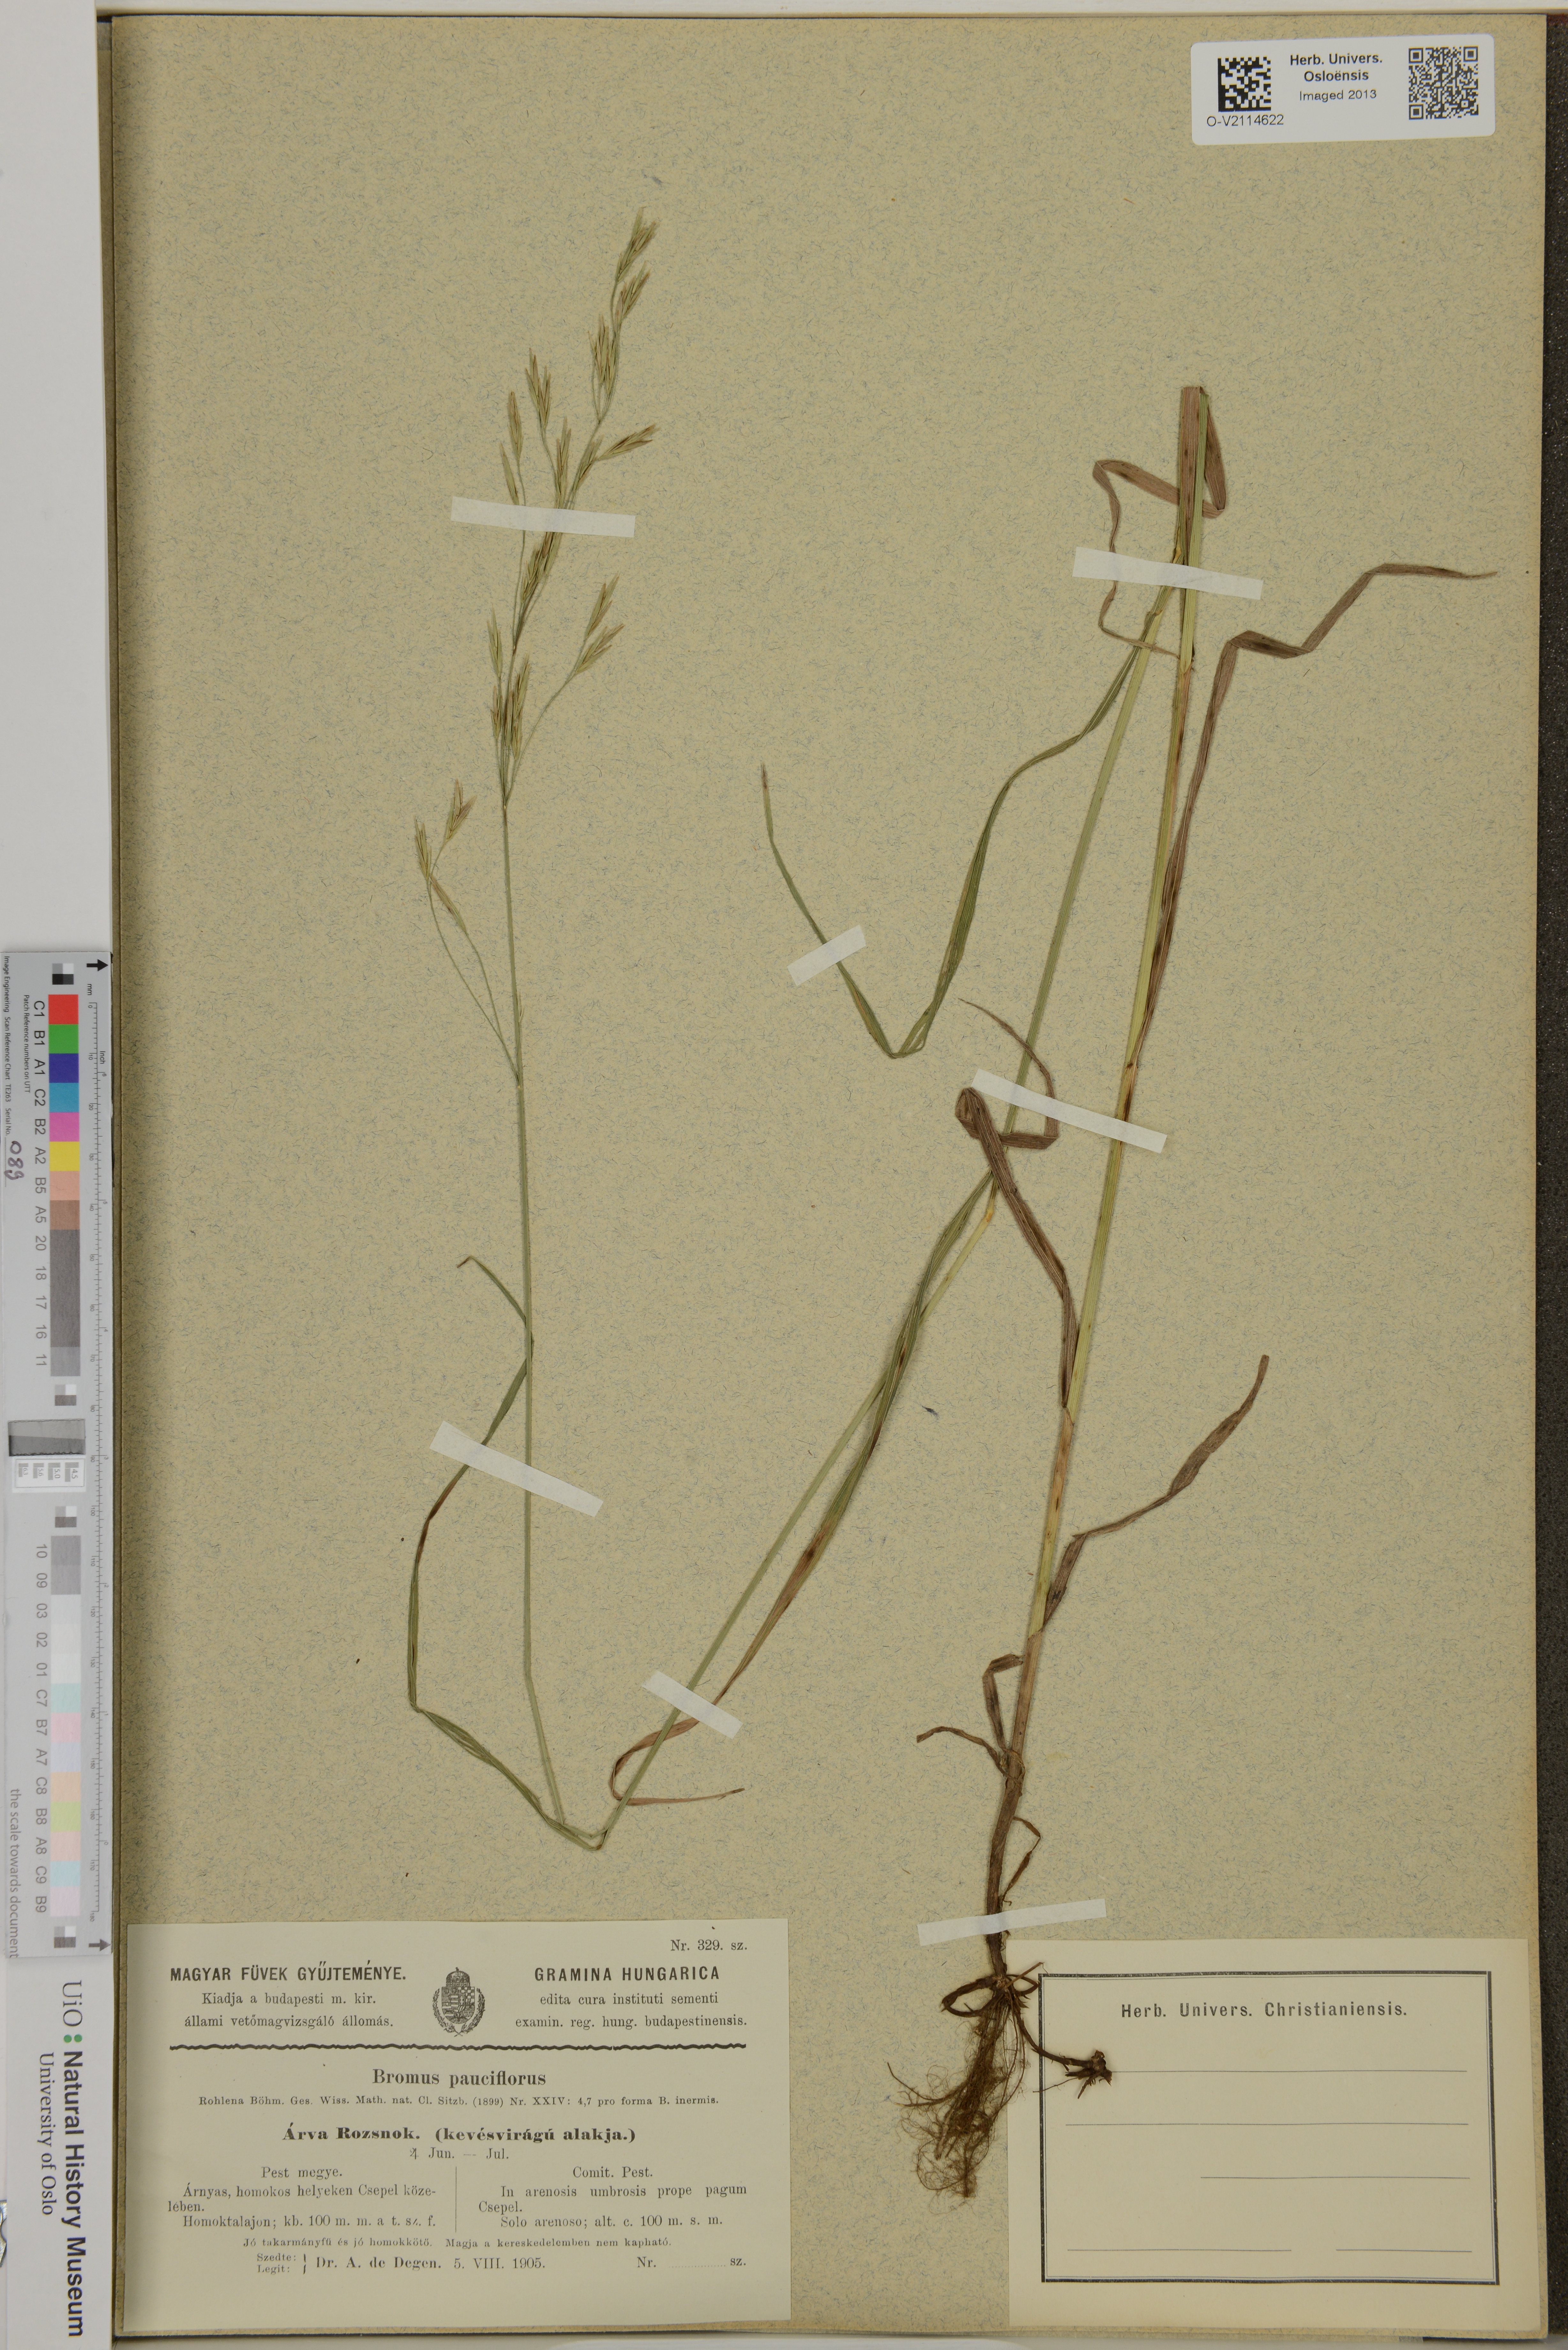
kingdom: Plantae
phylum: Tracheophyta
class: Liliopsida
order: Poales
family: Poaceae
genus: Bromus
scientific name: Bromus
